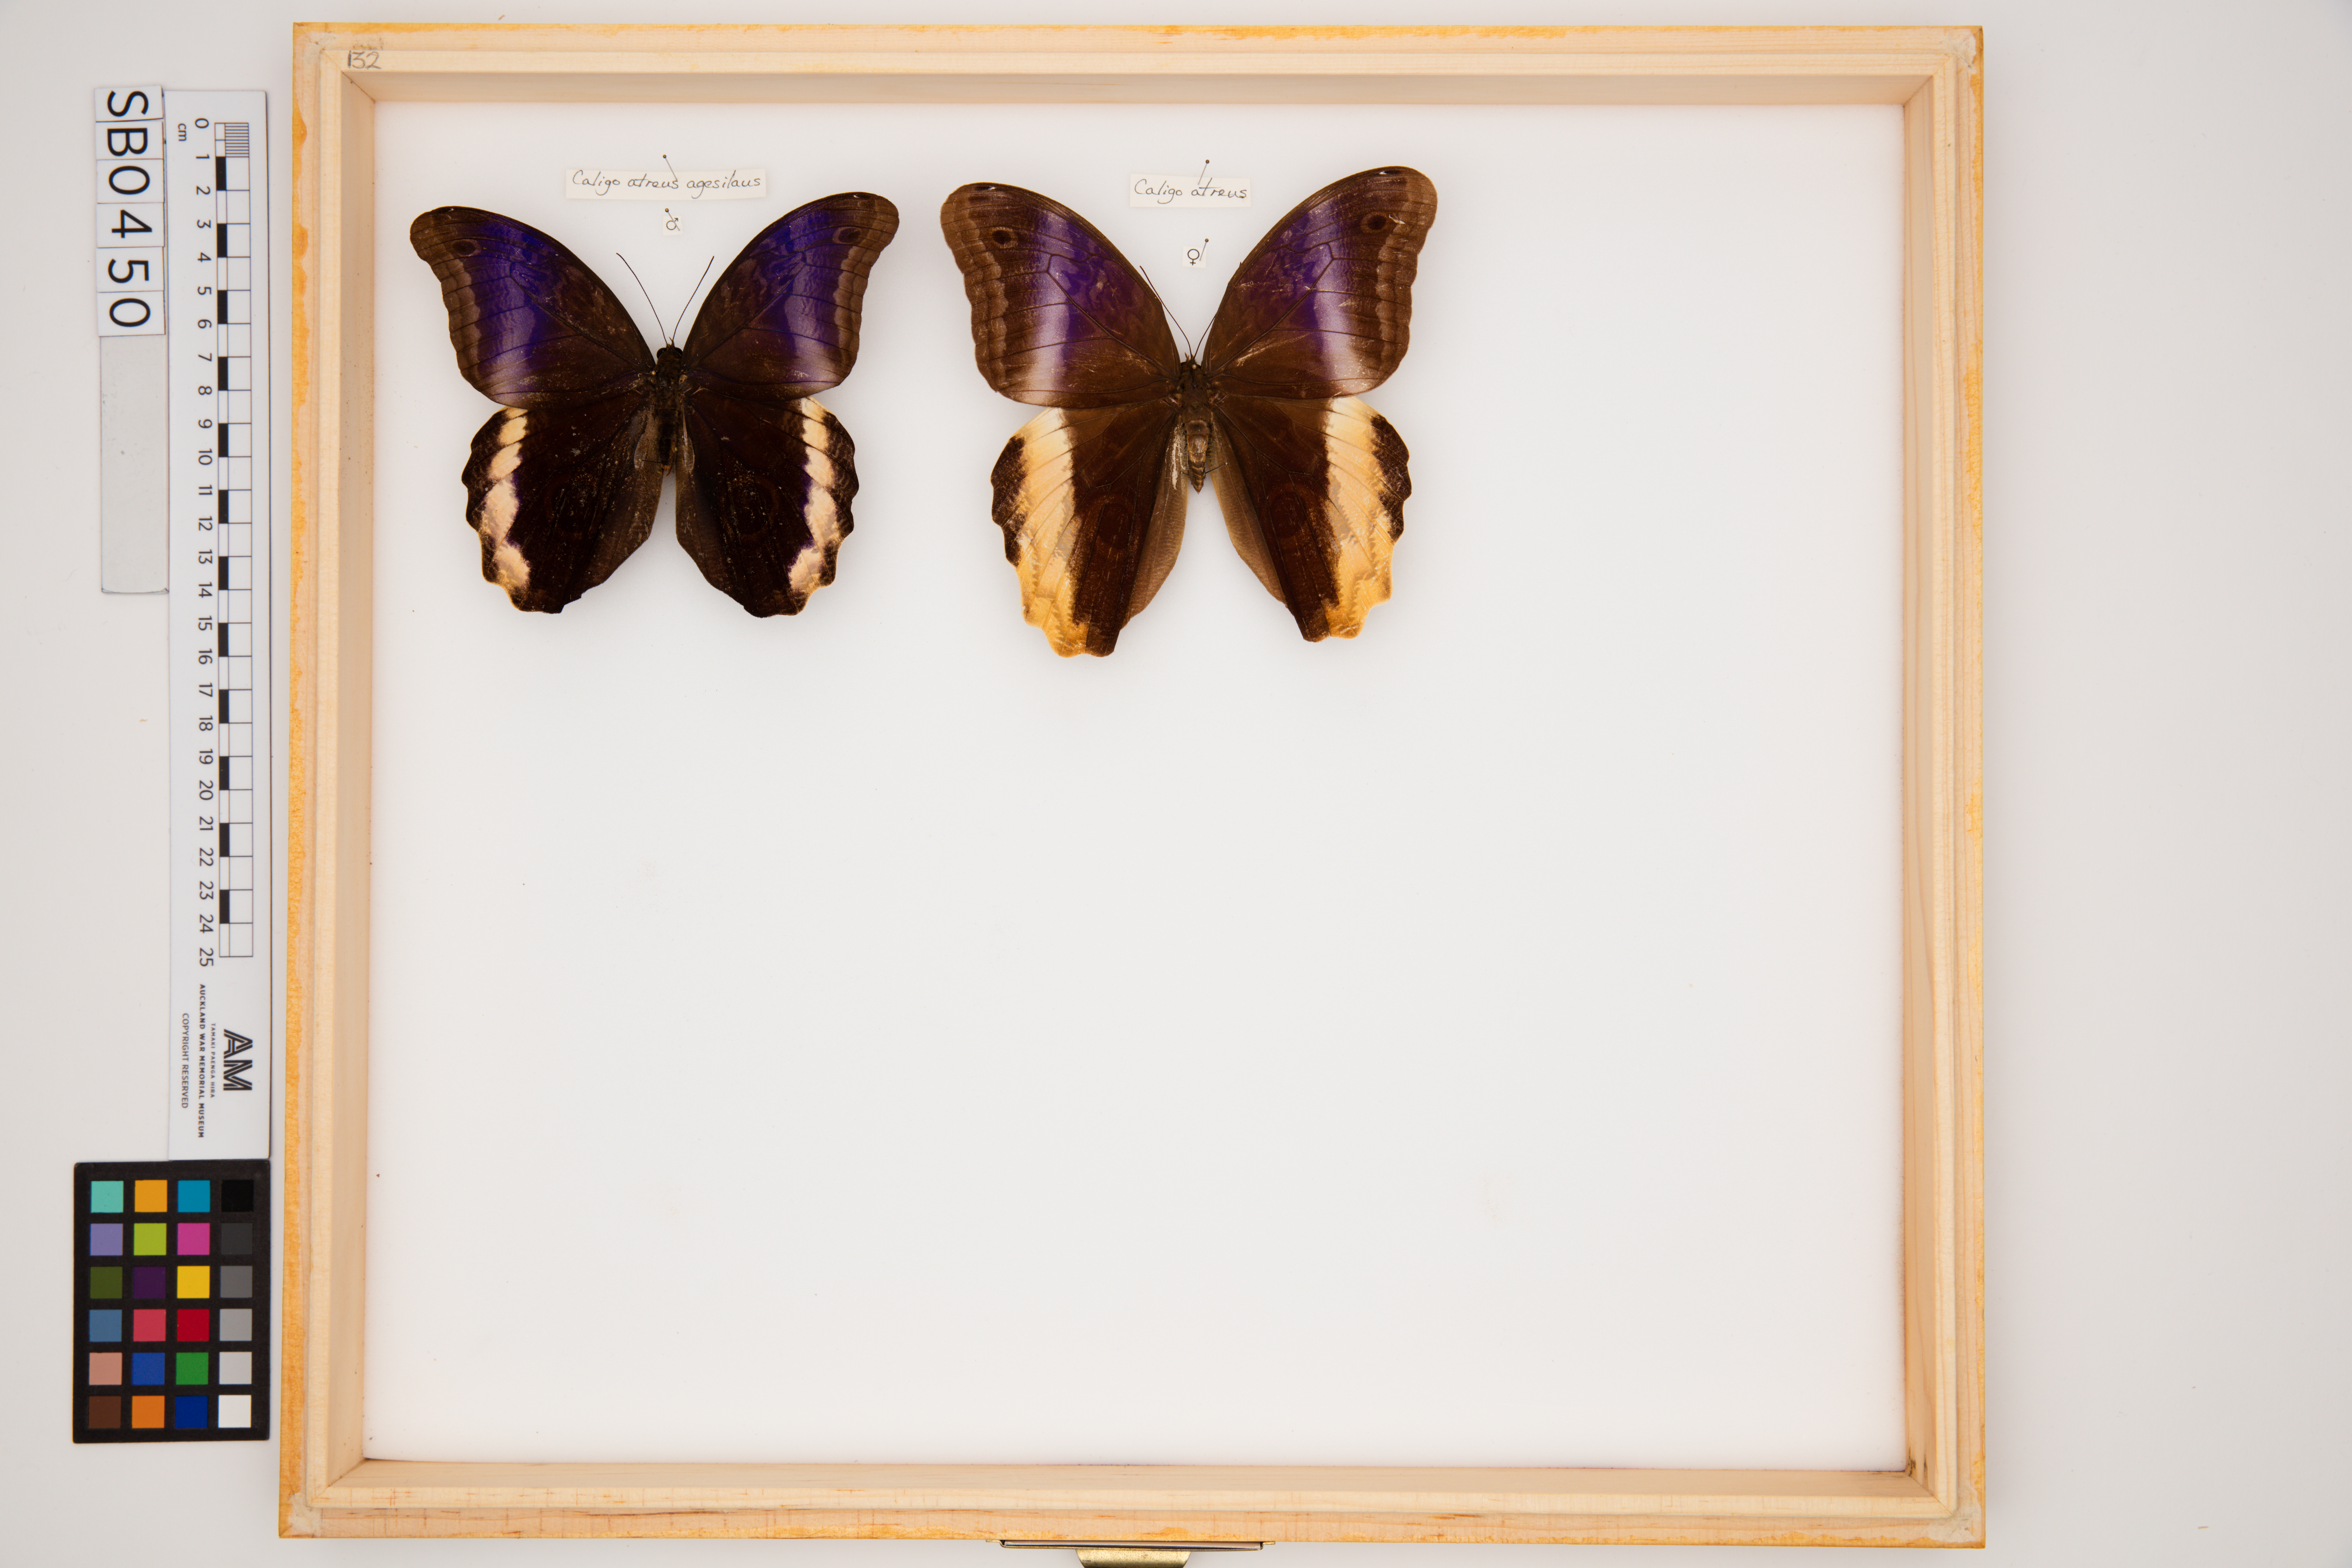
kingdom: Animalia
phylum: Arthropoda
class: Insecta
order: Lepidoptera
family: Nymphalidae
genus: Caligo
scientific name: Caligo atreus
